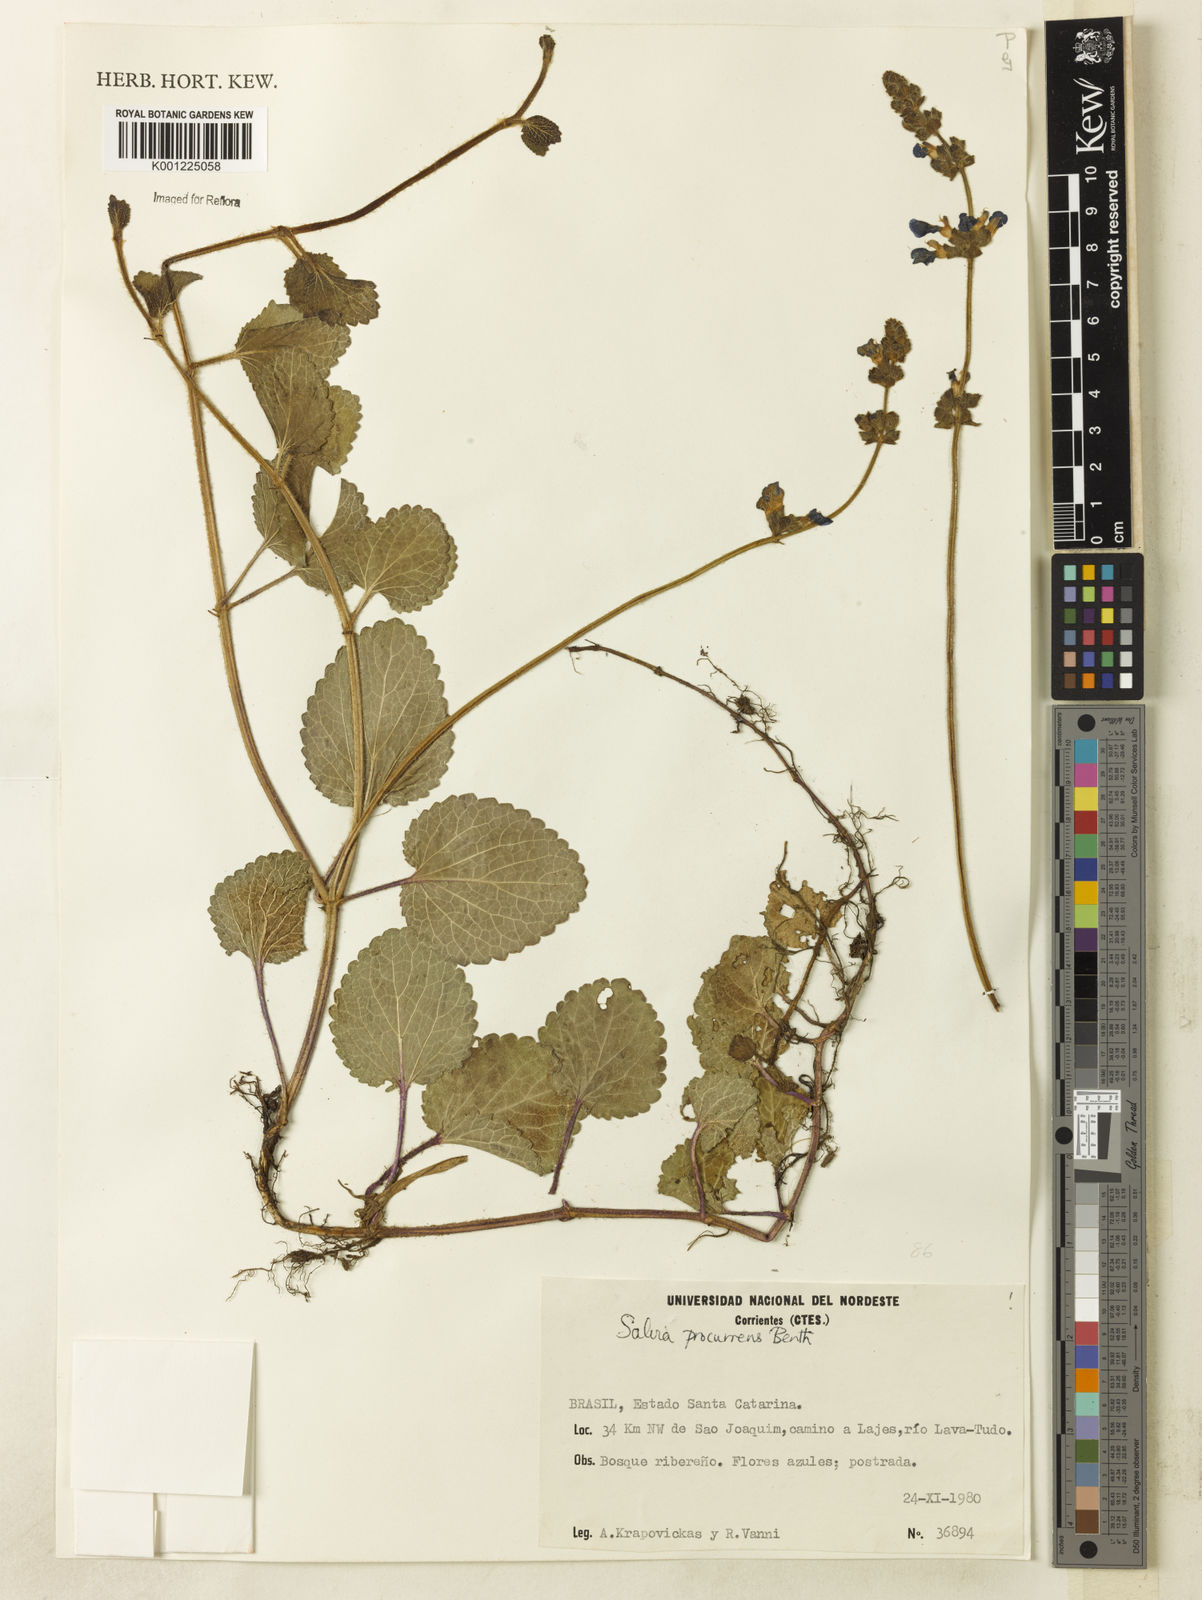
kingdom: Plantae
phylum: Tracheophyta
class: Magnoliopsida
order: Lamiales
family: Lamiaceae
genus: Salvia
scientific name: Salvia procurrens
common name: Blue creeper
